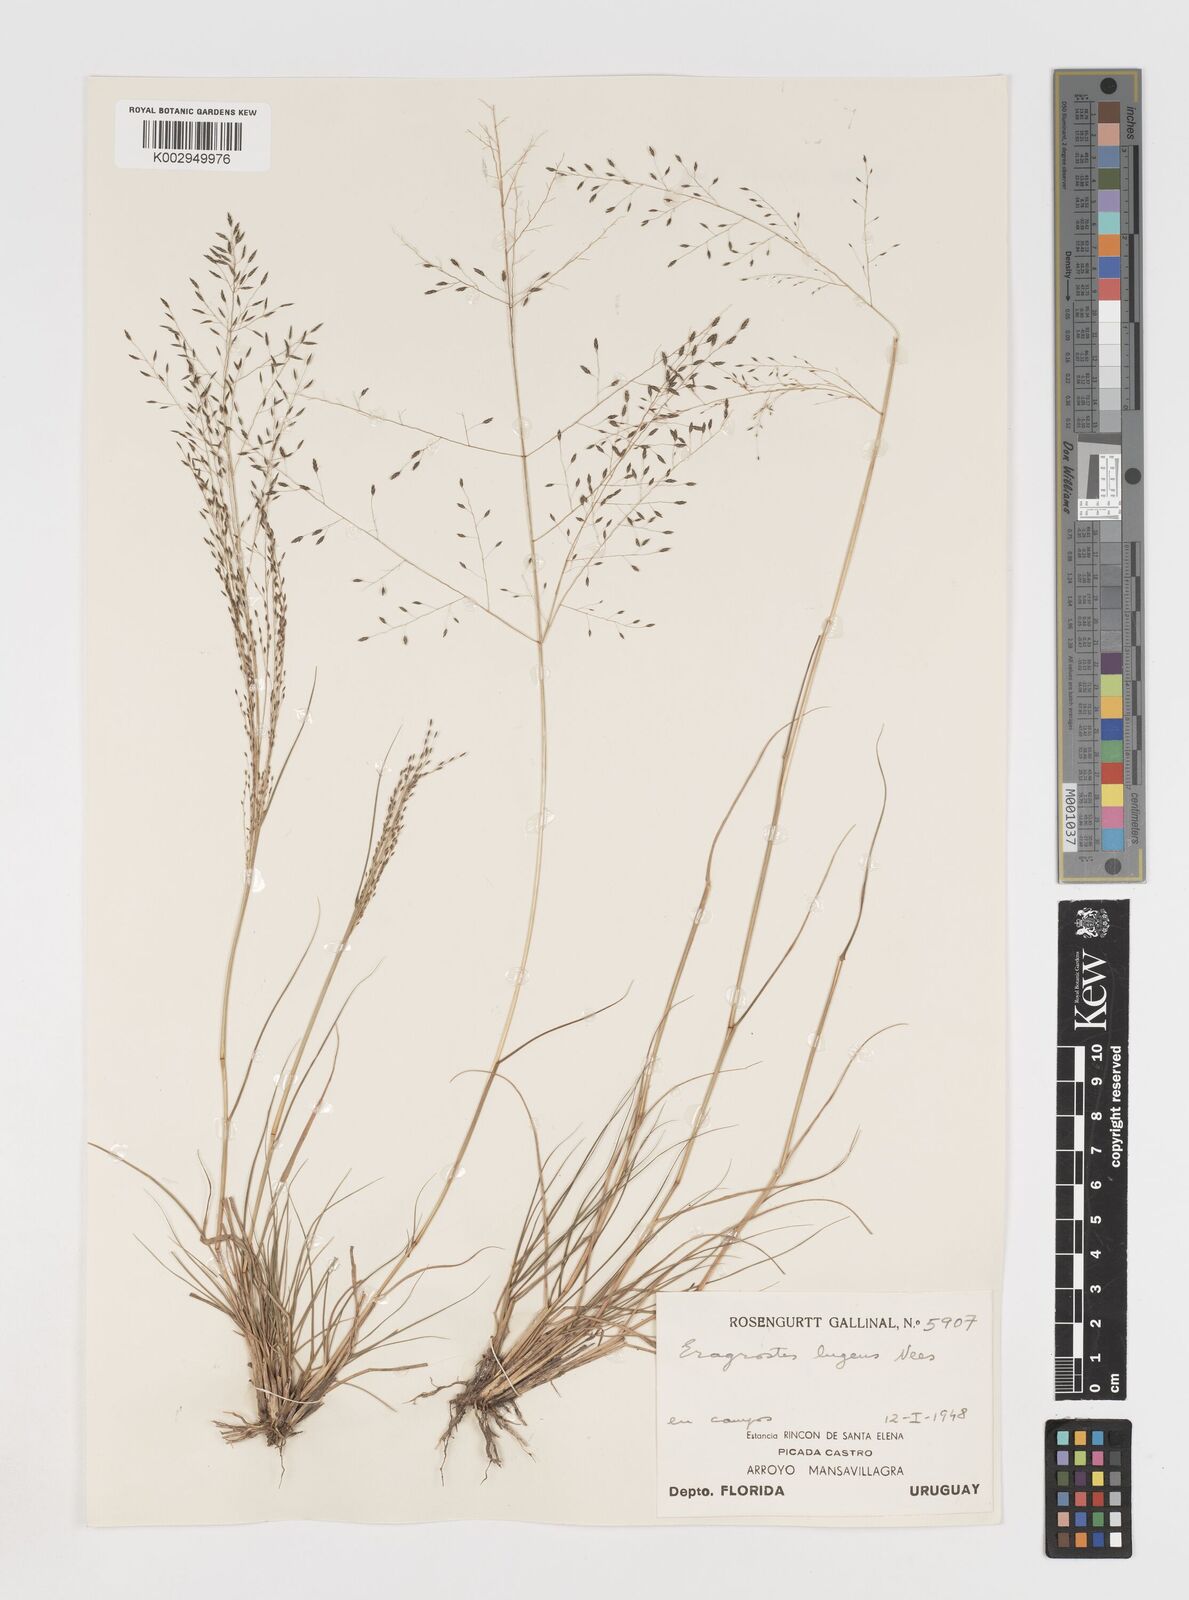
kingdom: Plantae
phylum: Tracheophyta
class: Liliopsida
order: Poales
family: Poaceae
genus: Eragrostis
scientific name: Eragrostis
